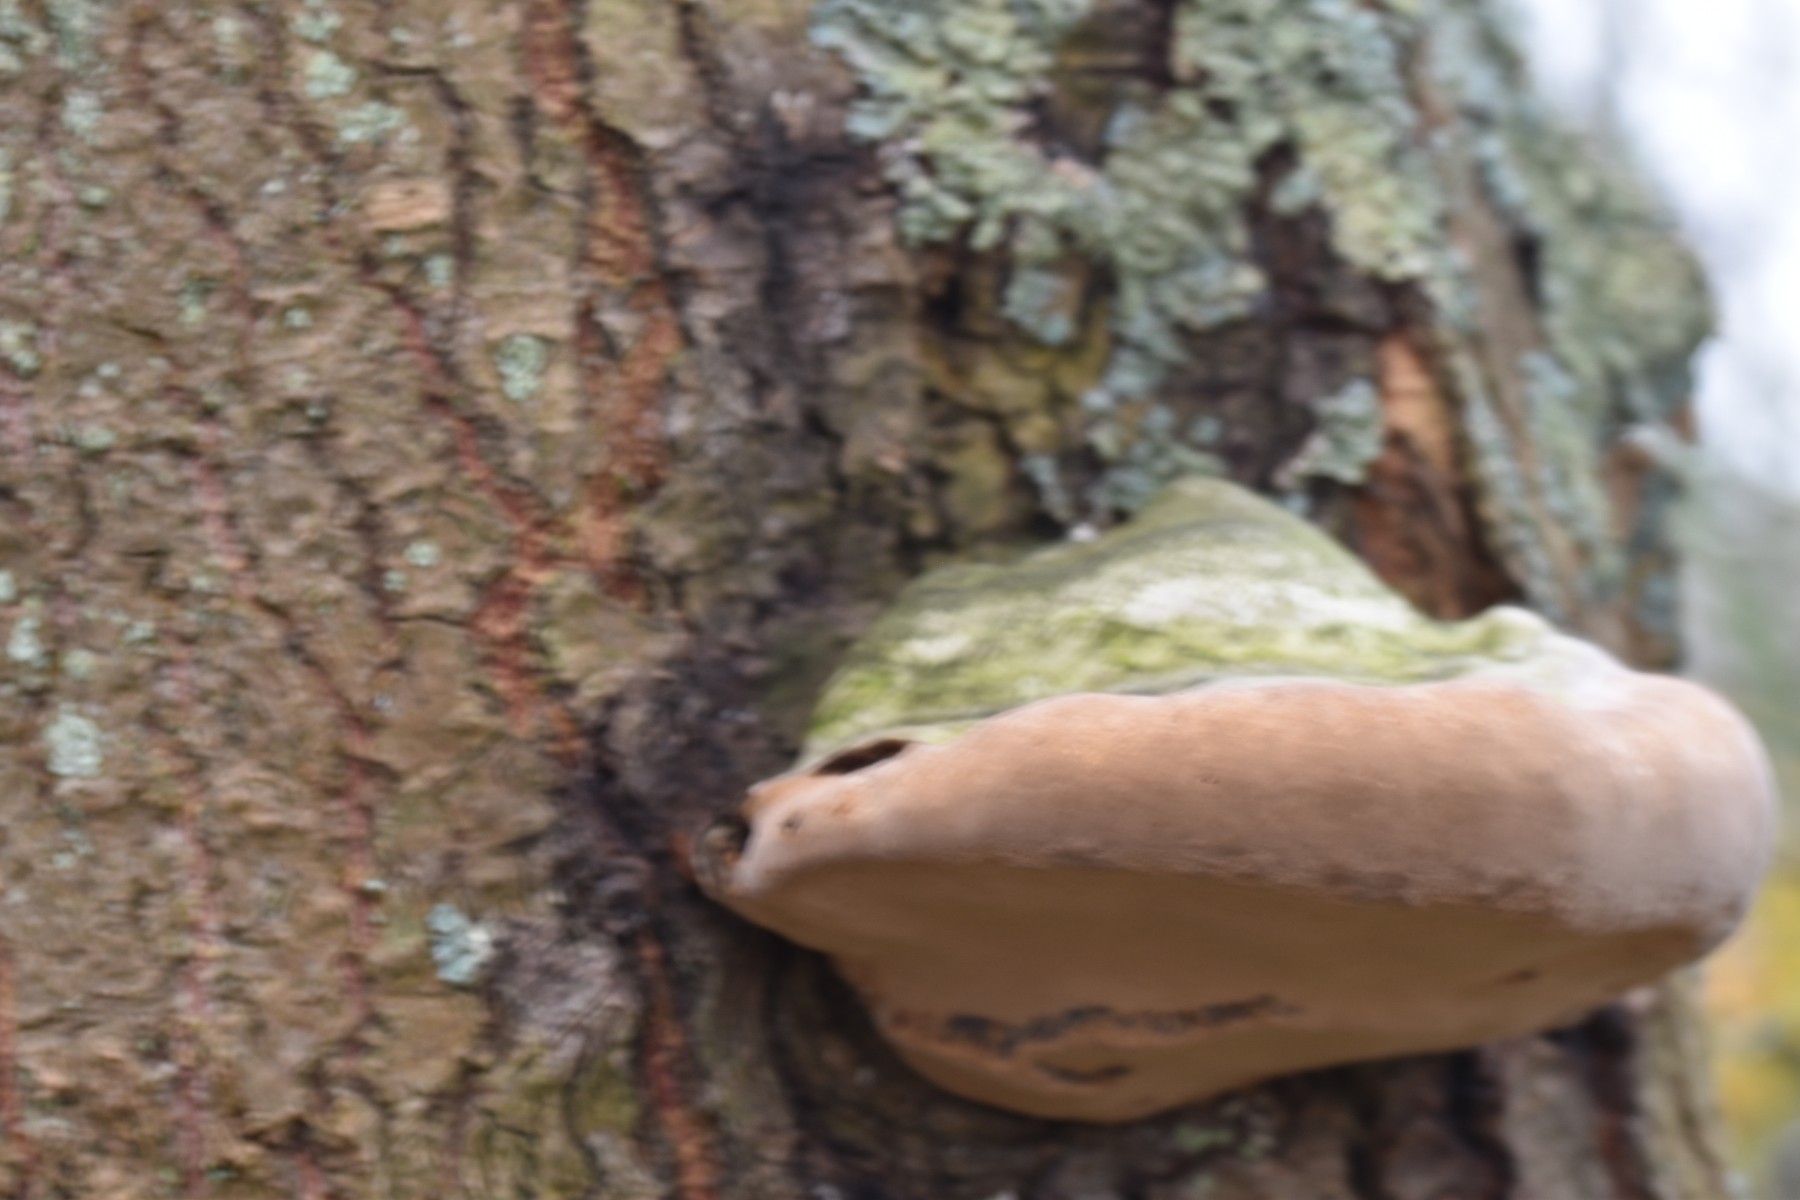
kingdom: Fungi
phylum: Basidiomycota
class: Agaricomycetes
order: Hymenochaetales
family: Hymenochaetaceae
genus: Phellinus
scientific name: Phellinus populicola
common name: poppel-ildporesvamp
